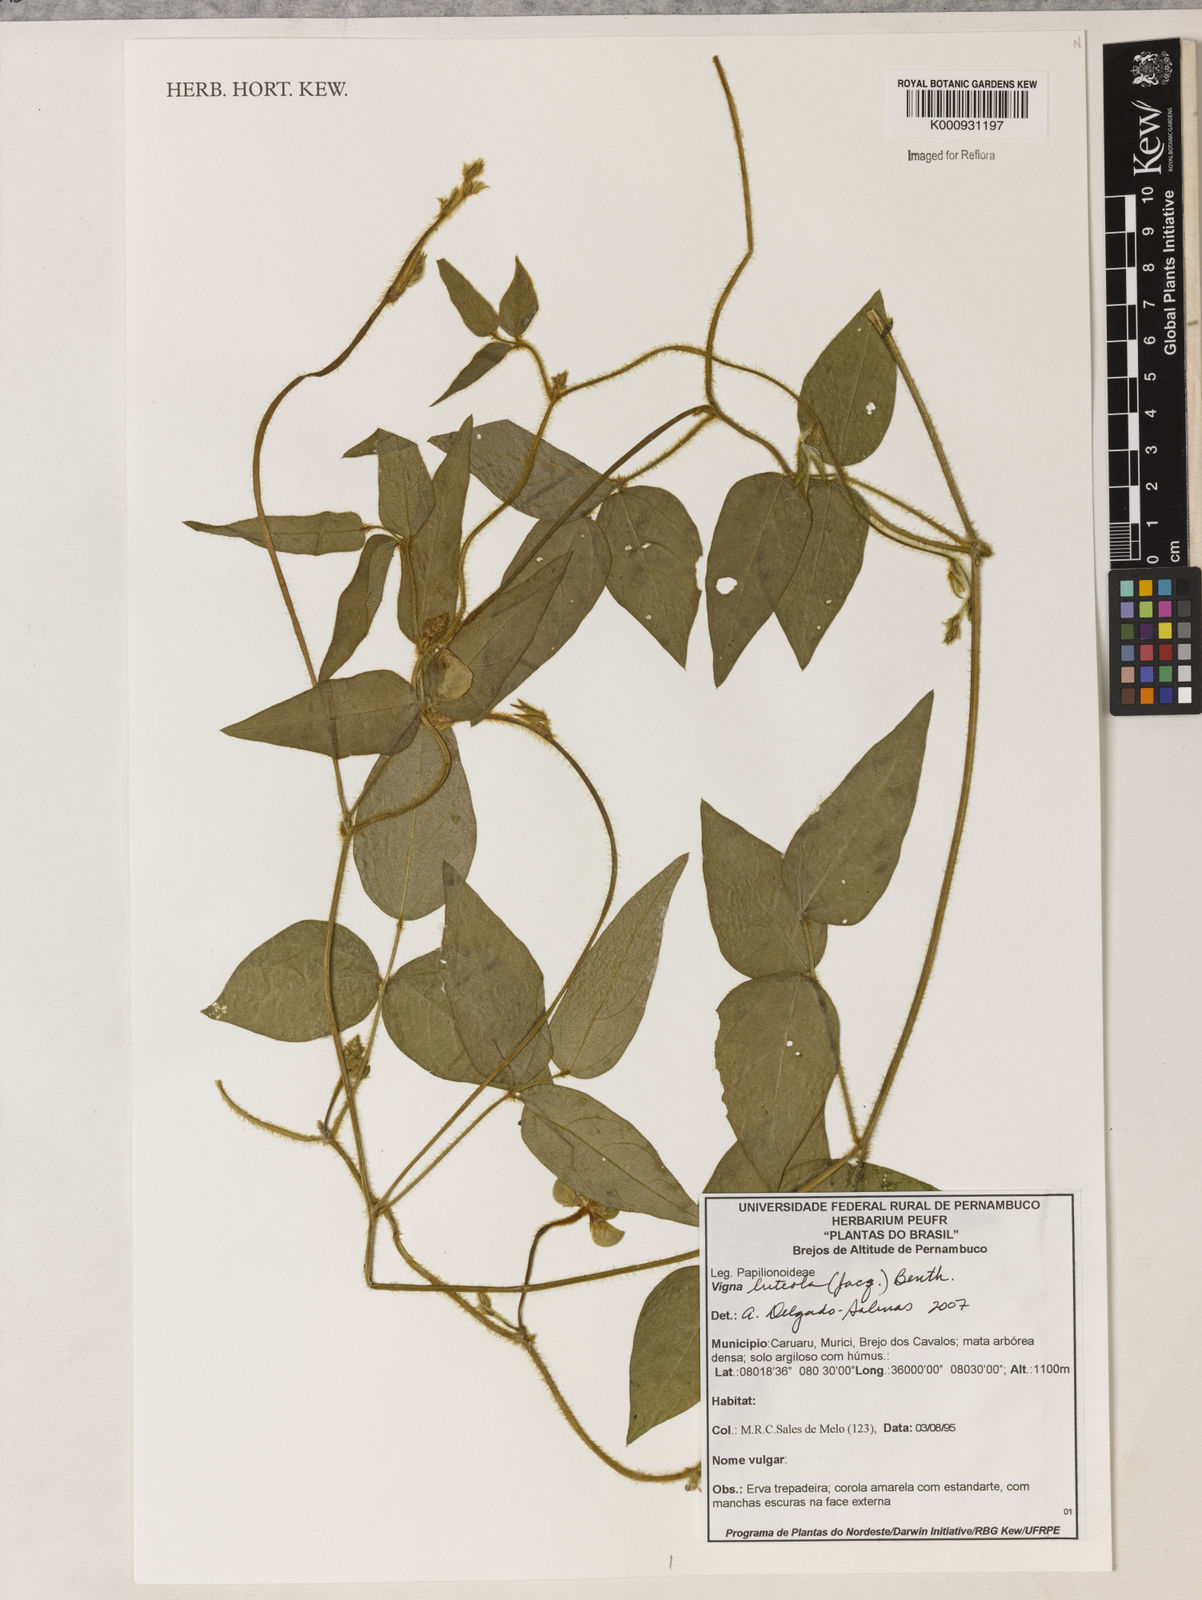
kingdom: Plantae
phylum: Tracheophyta
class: Magnoliopsida
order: Fabales
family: Fabaceae
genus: Vigna
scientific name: Vigna luteola
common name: Hairypod cowpea
